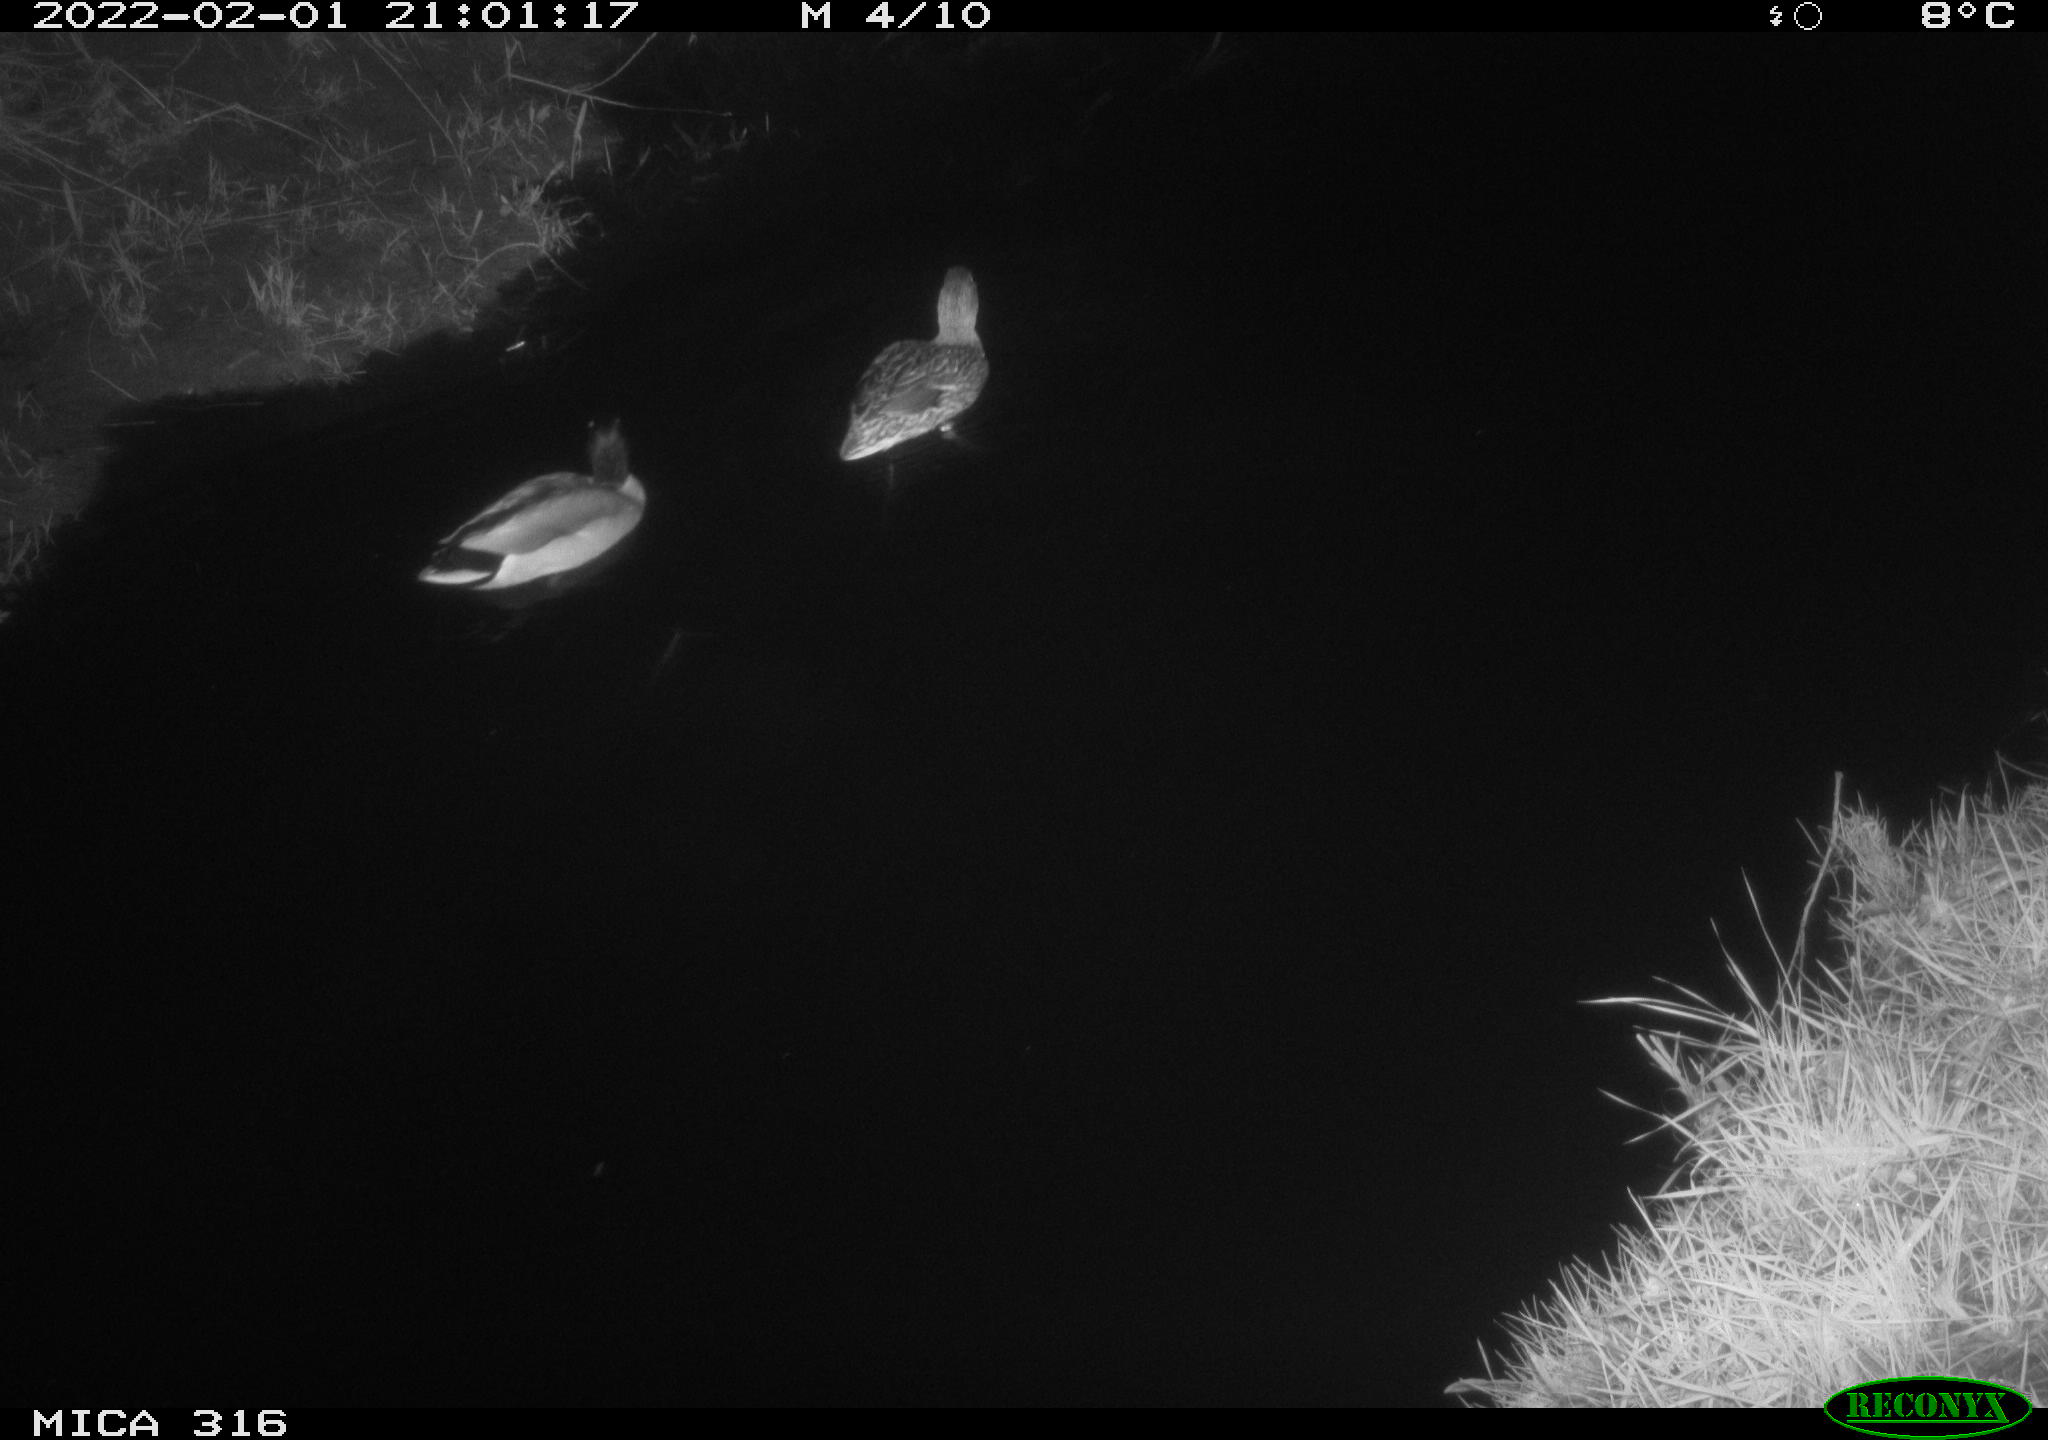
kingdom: Animalia
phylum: Chordata
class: Aves
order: Anseriformes
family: Anatidae
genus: Anas
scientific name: Anas platyrhynchos
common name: Mallard
